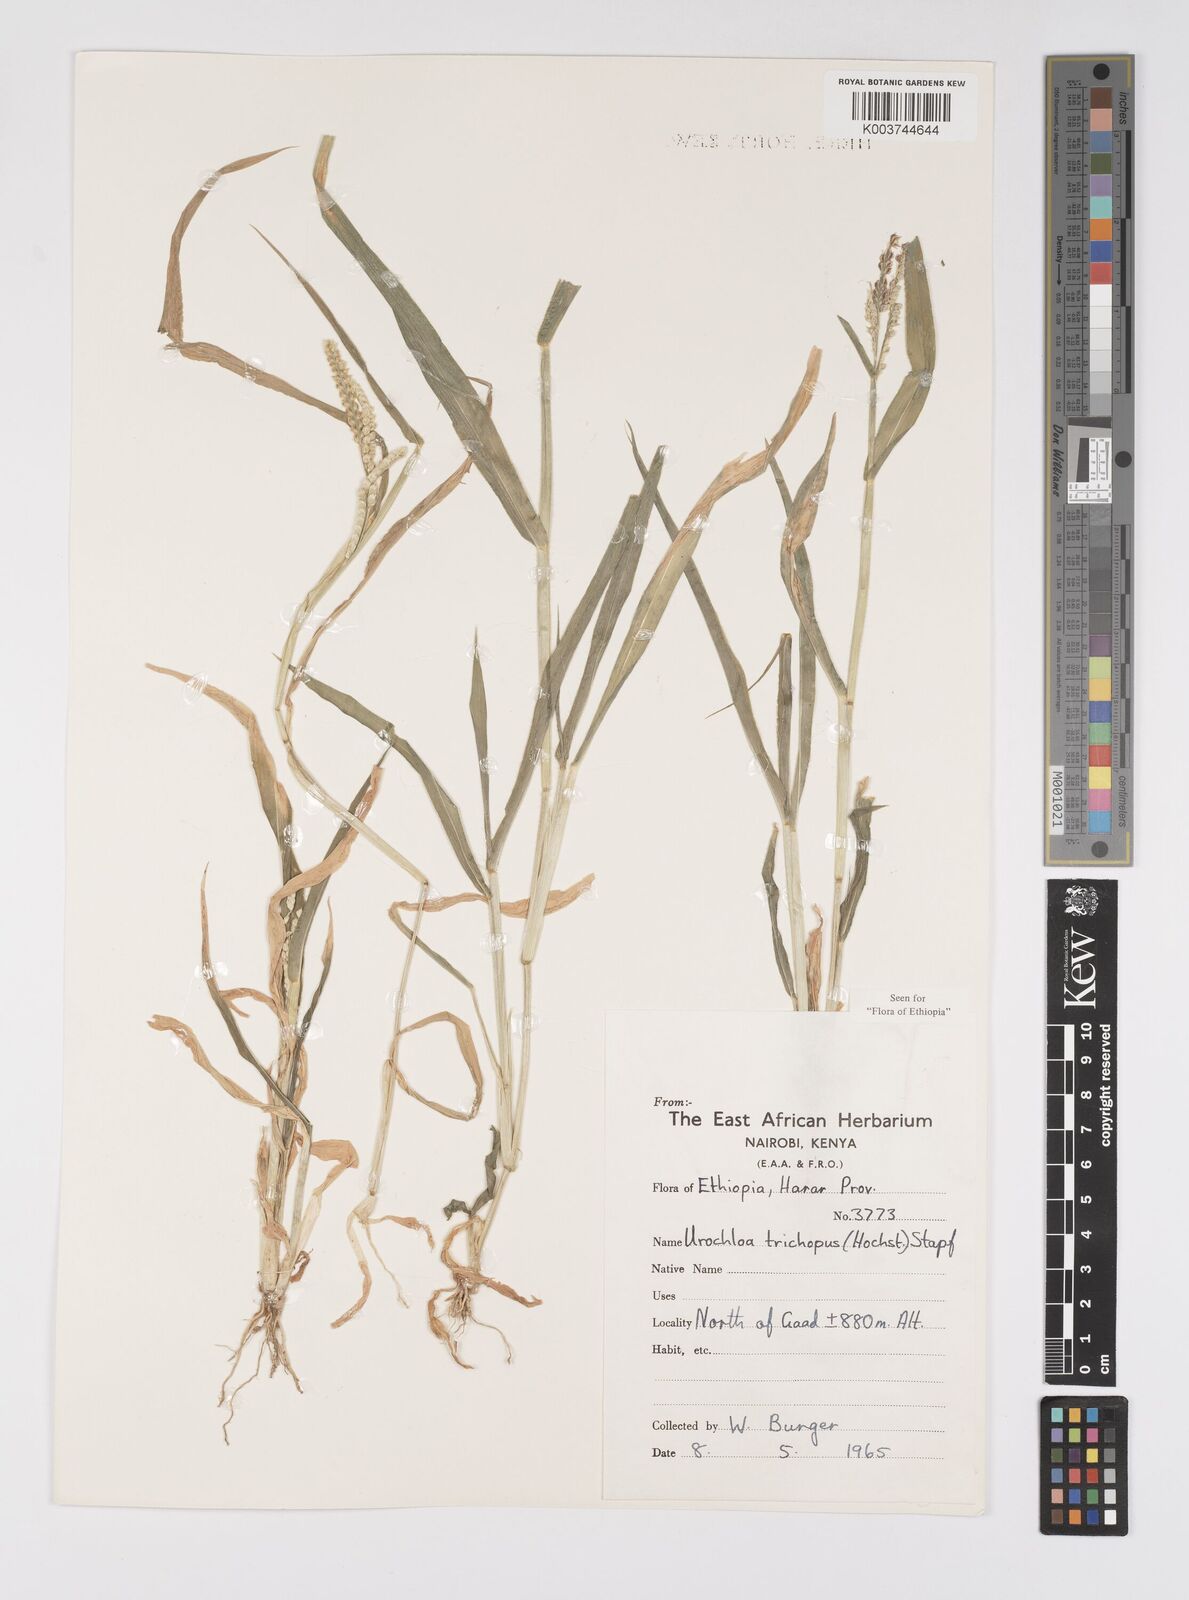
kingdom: Plantae
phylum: Tracheophyta
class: Liliopsida
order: Poales
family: Poaceae
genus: Urochloa
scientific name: Urochloa trichopus
